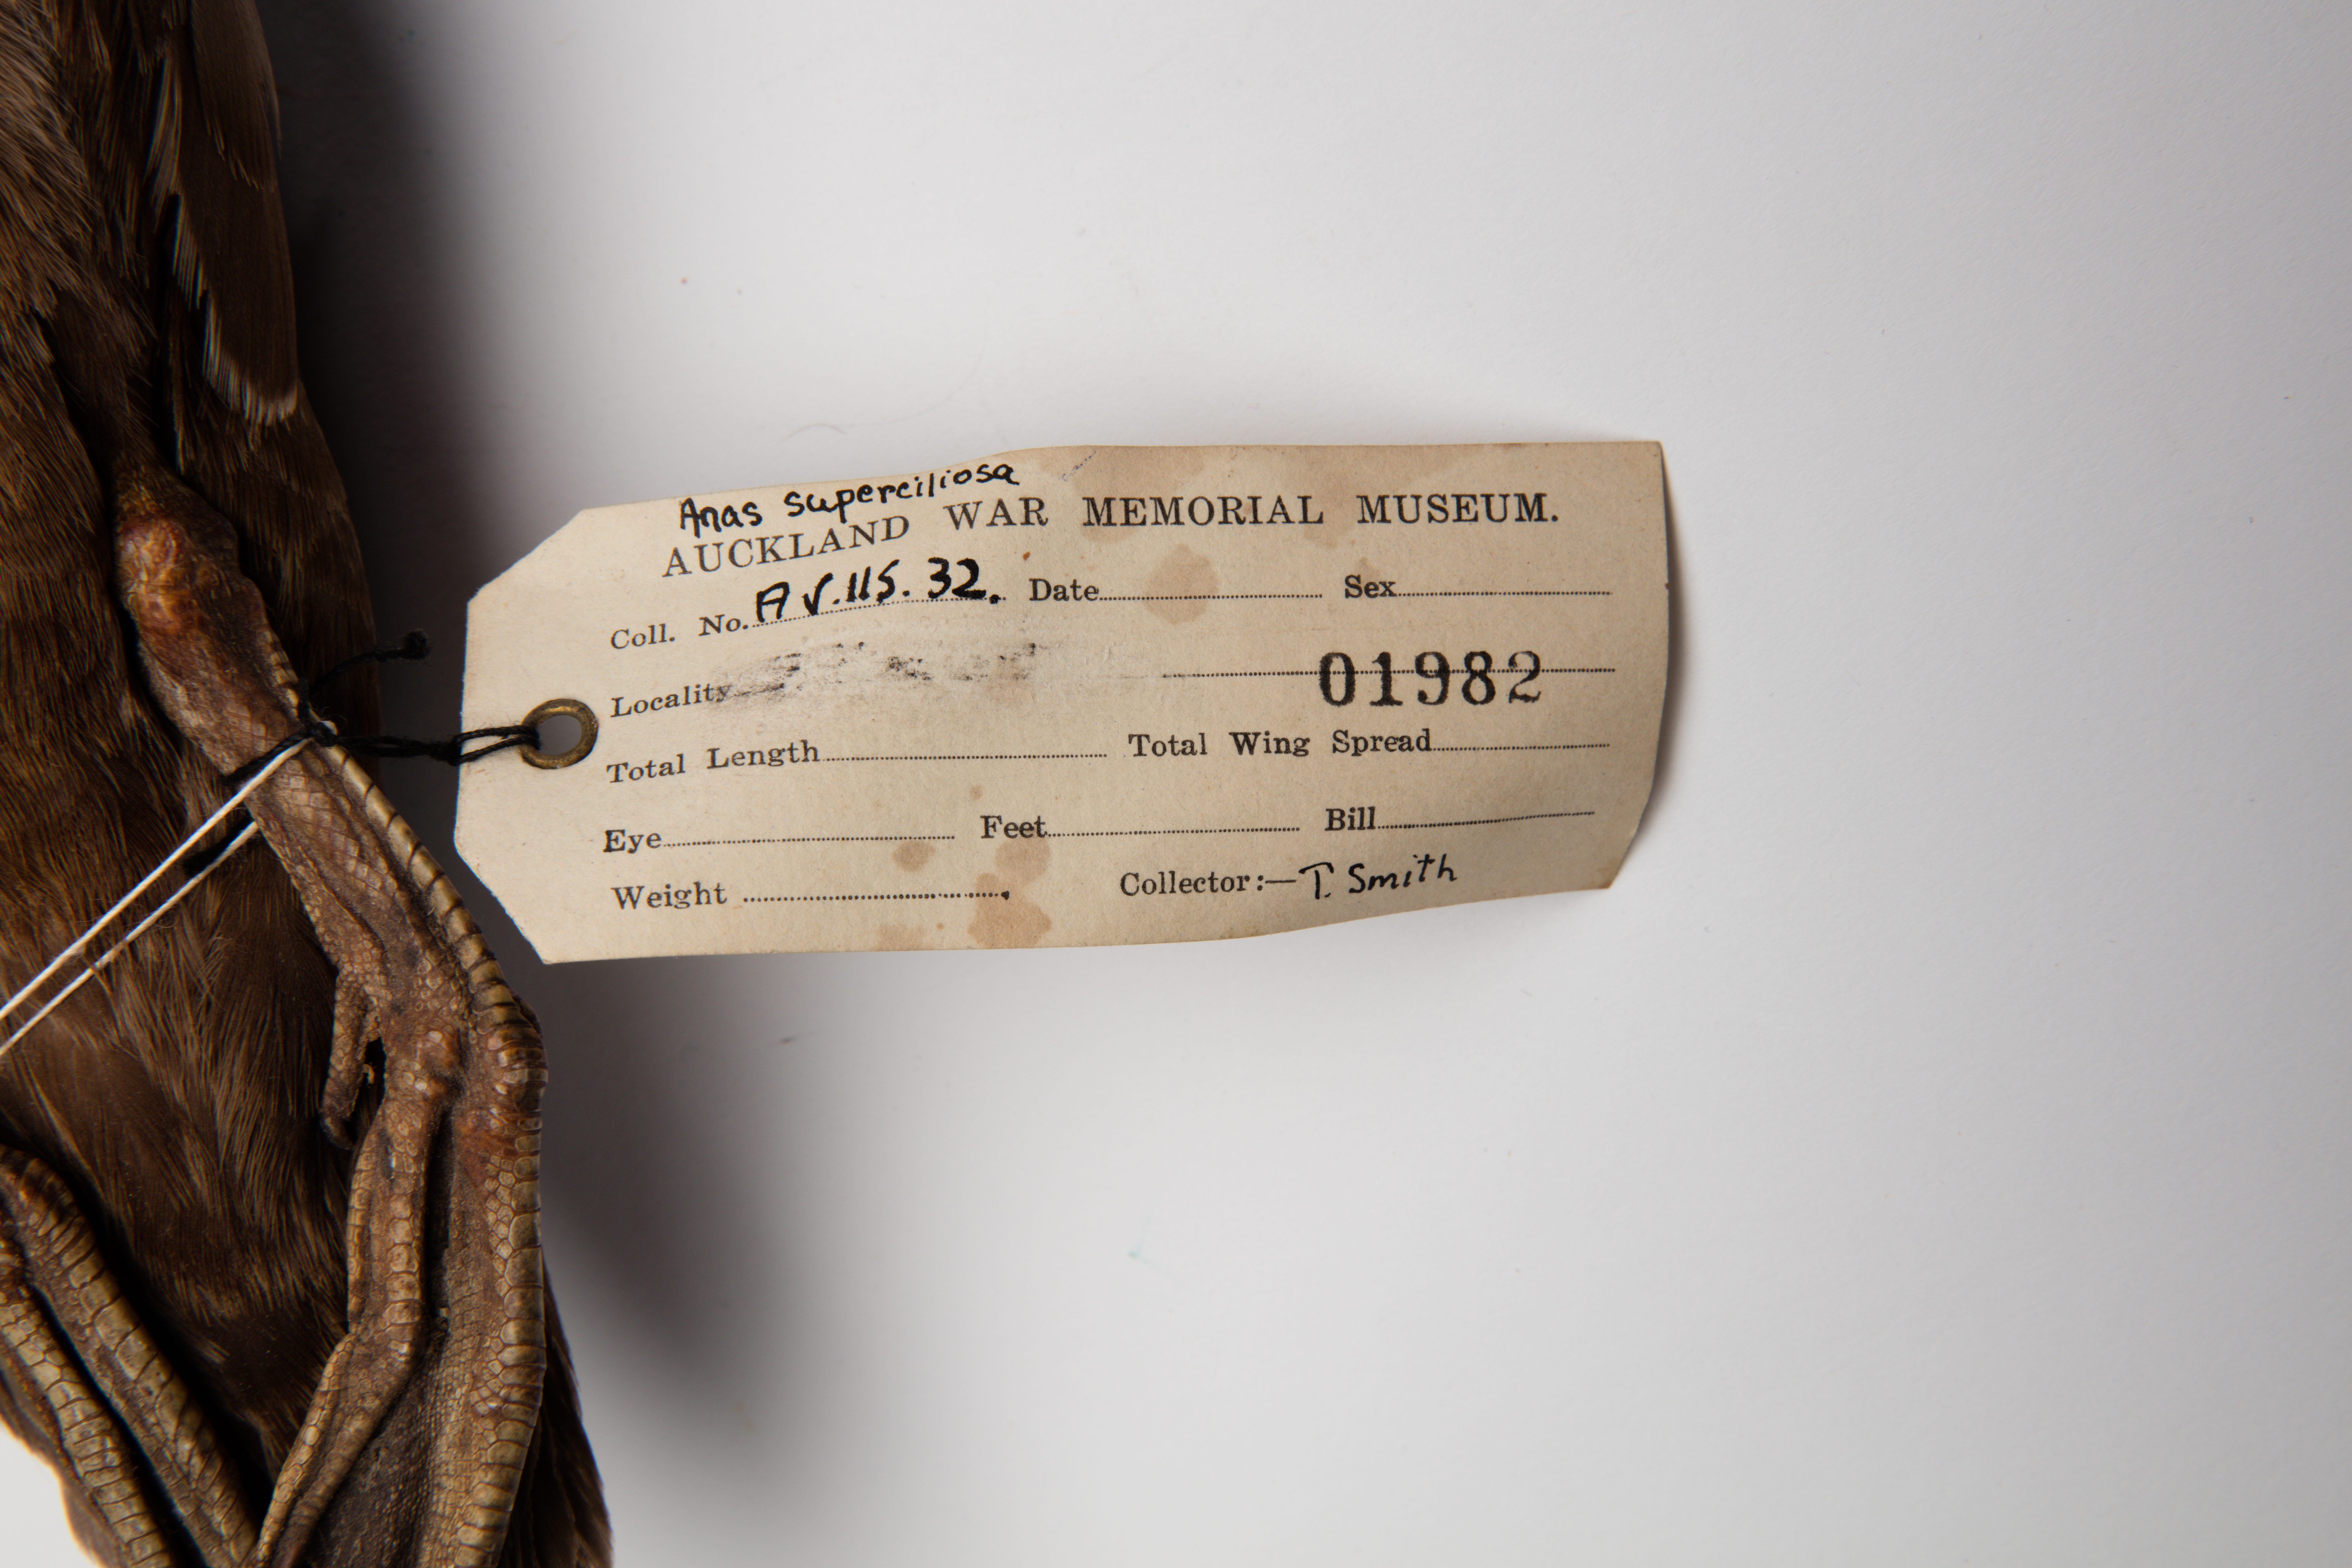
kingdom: Animalia
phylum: Chordata
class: Aves
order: Anseriformes
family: Anatidae
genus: Anas
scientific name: Anas superciliosa
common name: Pacific black duck
